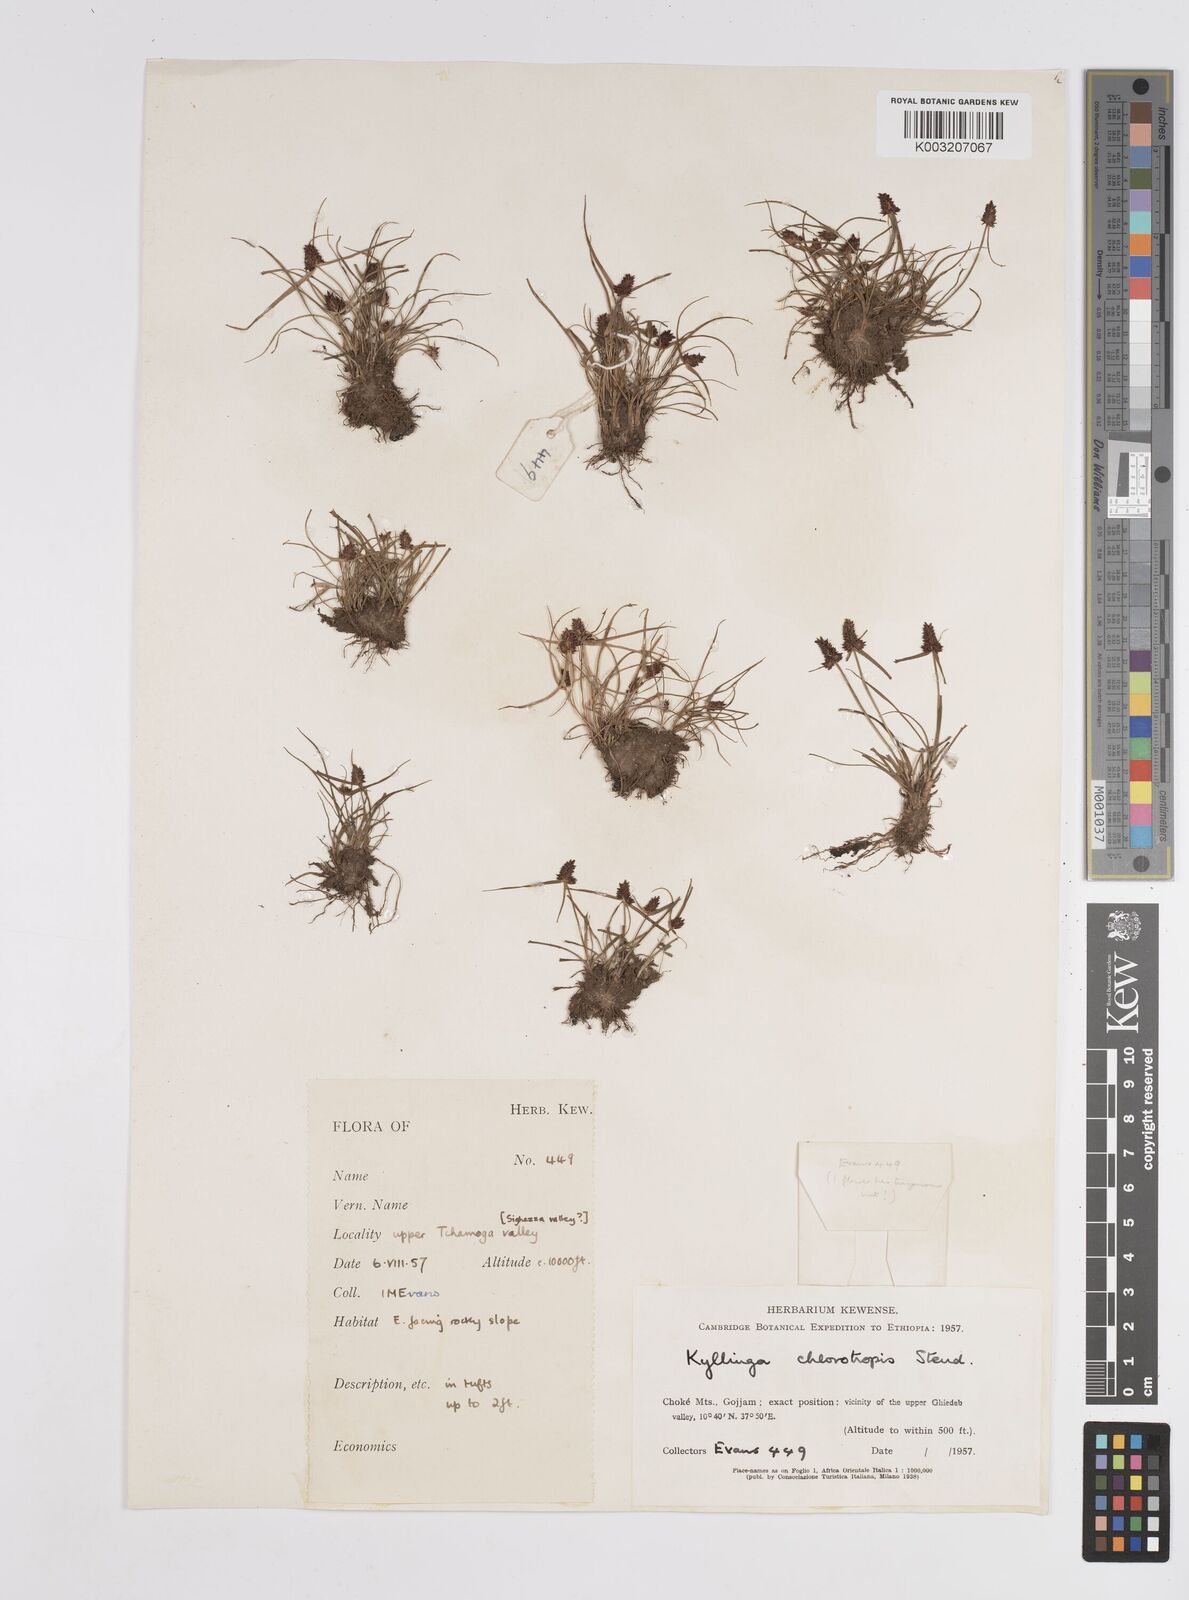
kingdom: Plantae
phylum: Tracheophyta
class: Liliopsida
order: Poales
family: Cyperaceae
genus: Cyperus
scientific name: Cyperus chlorotropis
